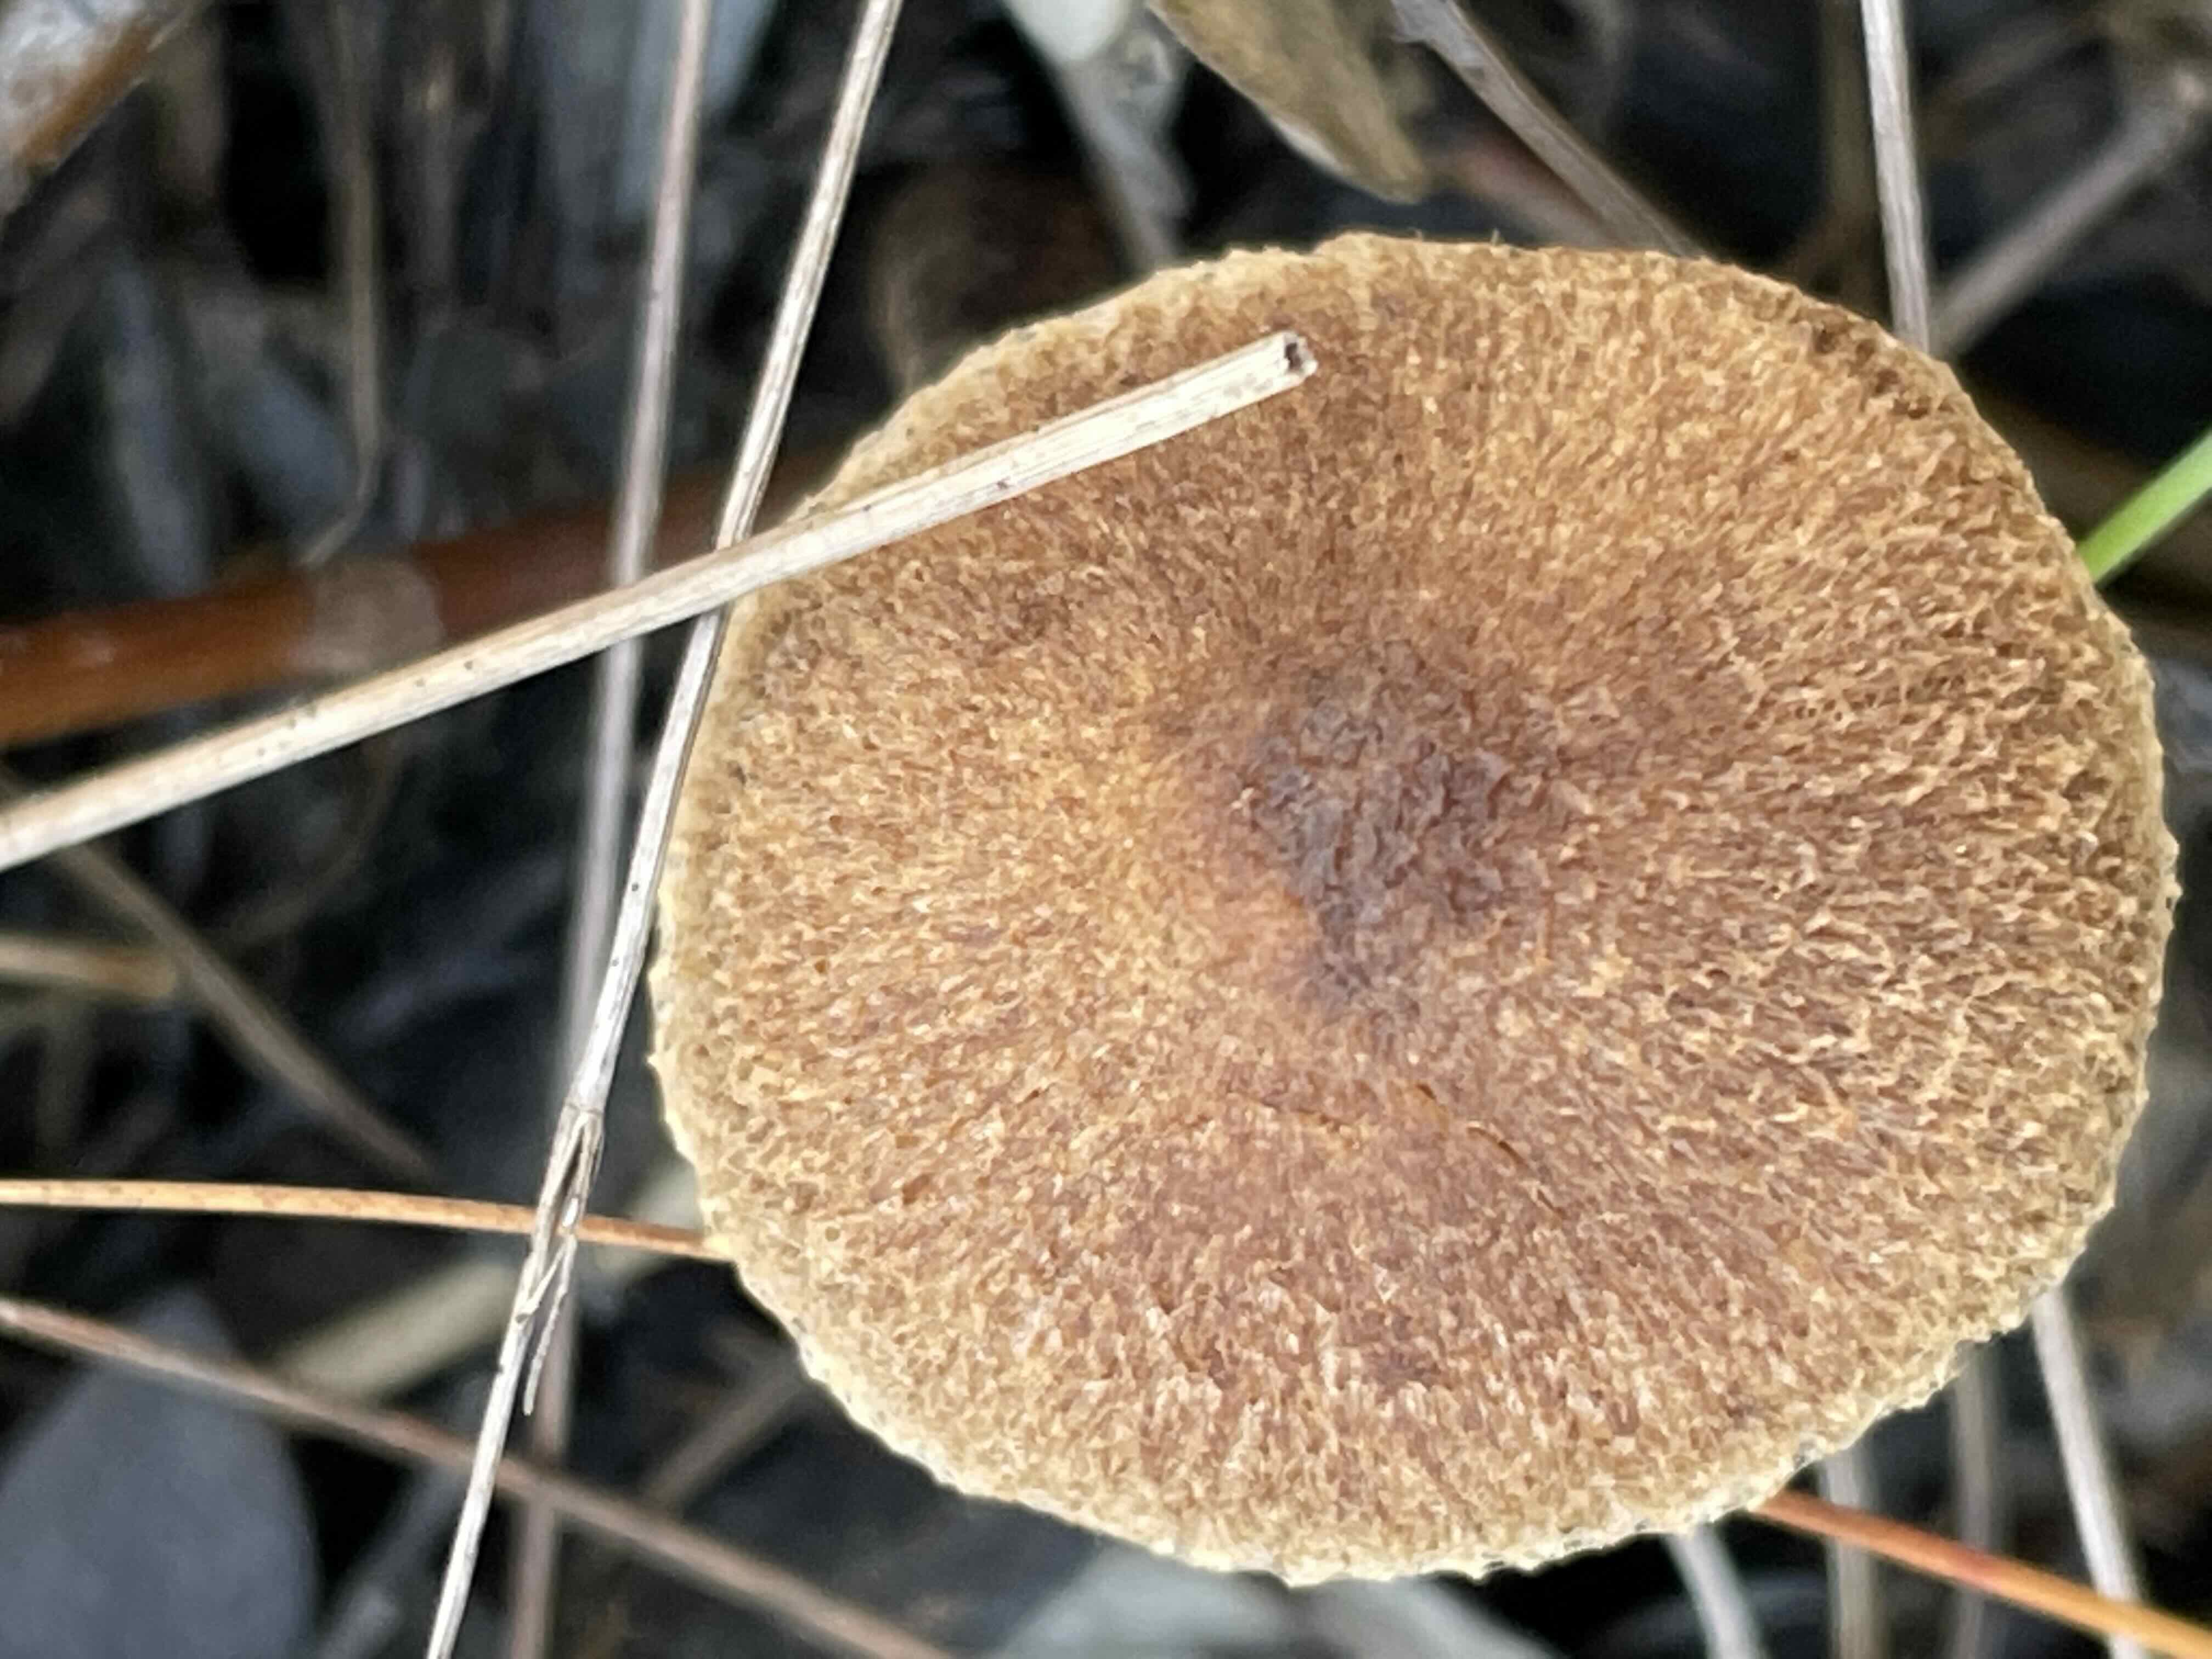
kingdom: Fungi
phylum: Basidiomycota
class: Agaricomycetes
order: Agaricales
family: Inocybaceae
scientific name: Inocybaceae
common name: trævlhatfamilien
